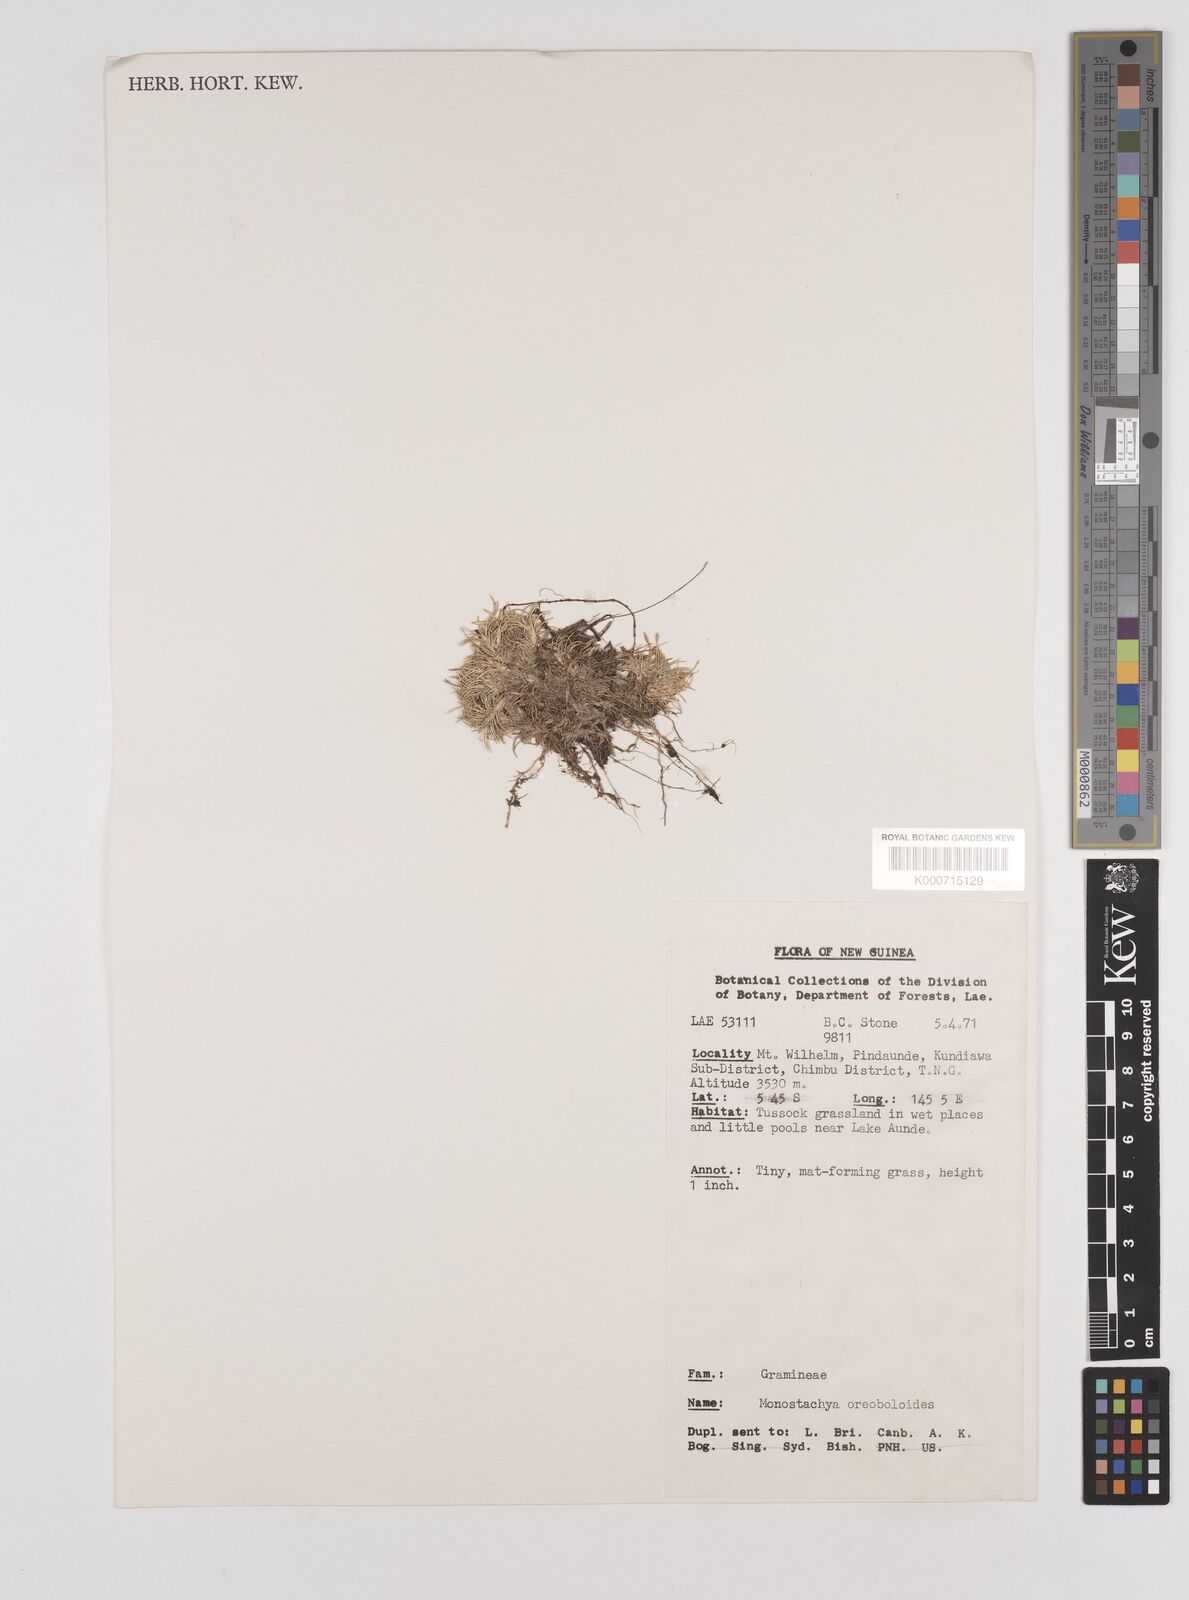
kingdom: Plantae
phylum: Tracheophyta
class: Liliopsida
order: Poales
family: Poaceae
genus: Rytidosperma
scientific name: Rytidosperma oreoboloides
